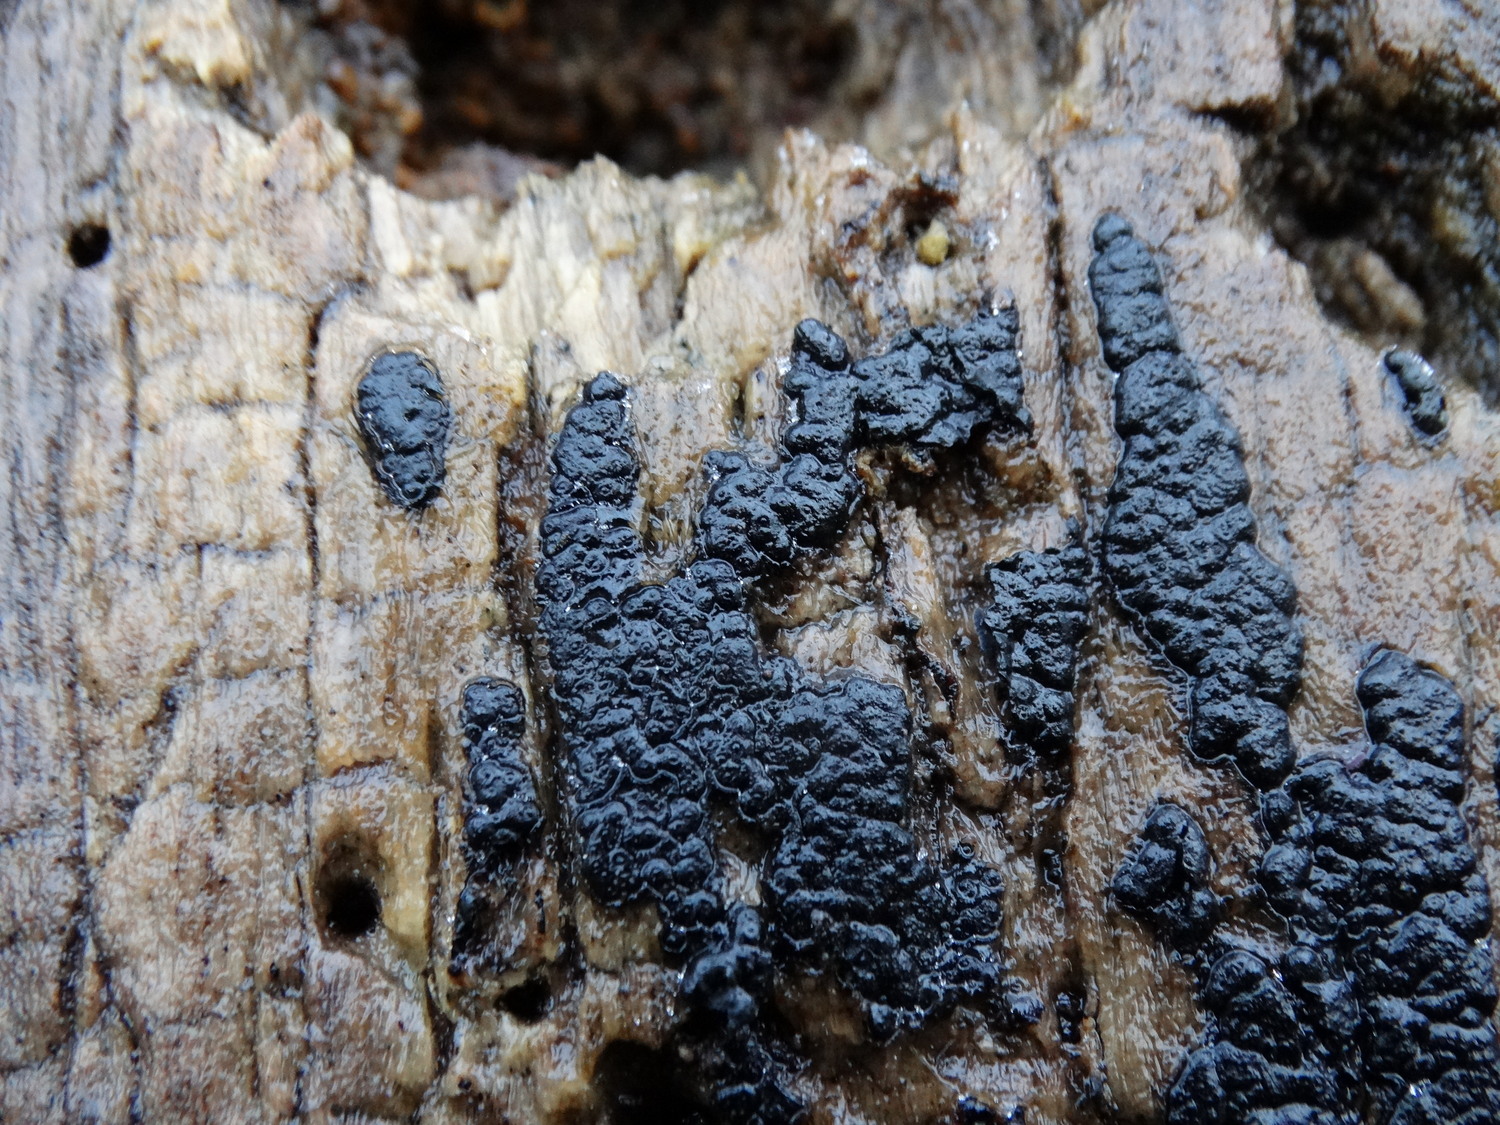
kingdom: Fungi
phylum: Ascomycota
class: Sordariomycetes
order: Xylariales
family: Xylariaceae
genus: Nemania
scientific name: Nemania
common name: kuldyne
